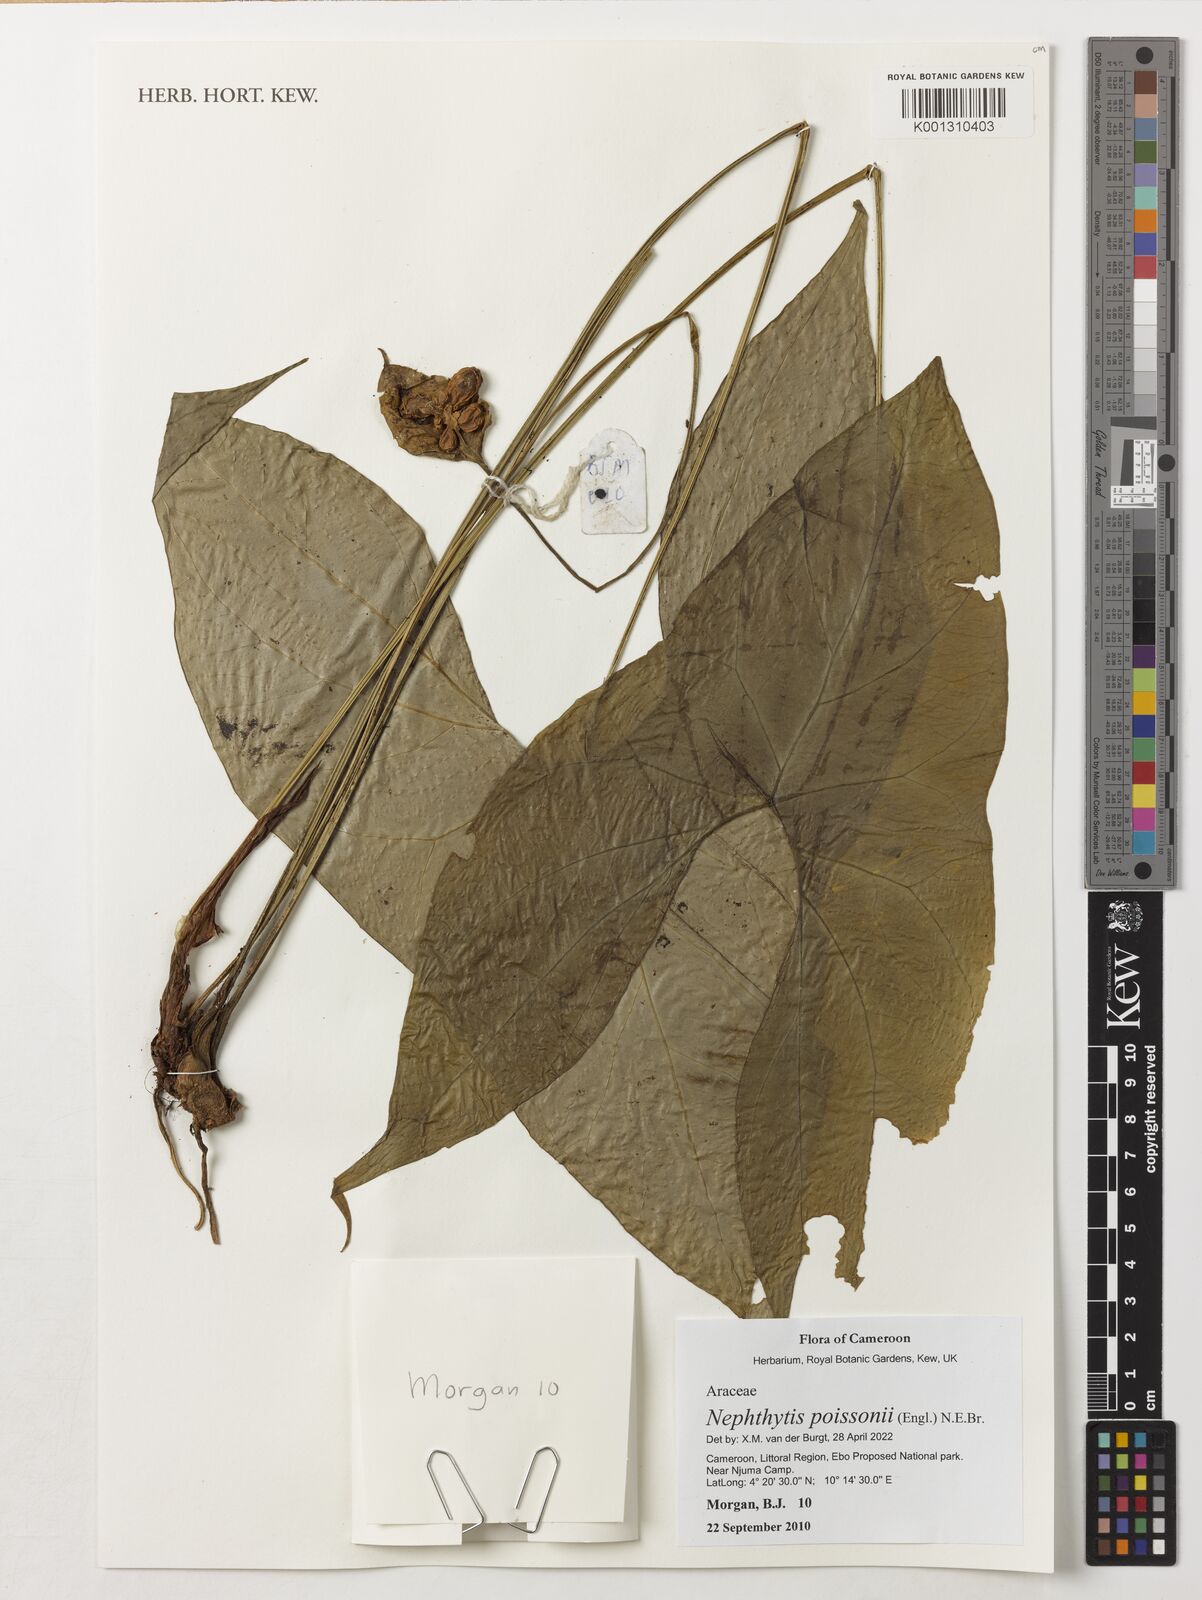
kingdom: Plantae
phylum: Tracheophyta
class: Liliopsida
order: Alismatales
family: Araceae
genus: Nephthytis
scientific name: Nephthytis poissonii
